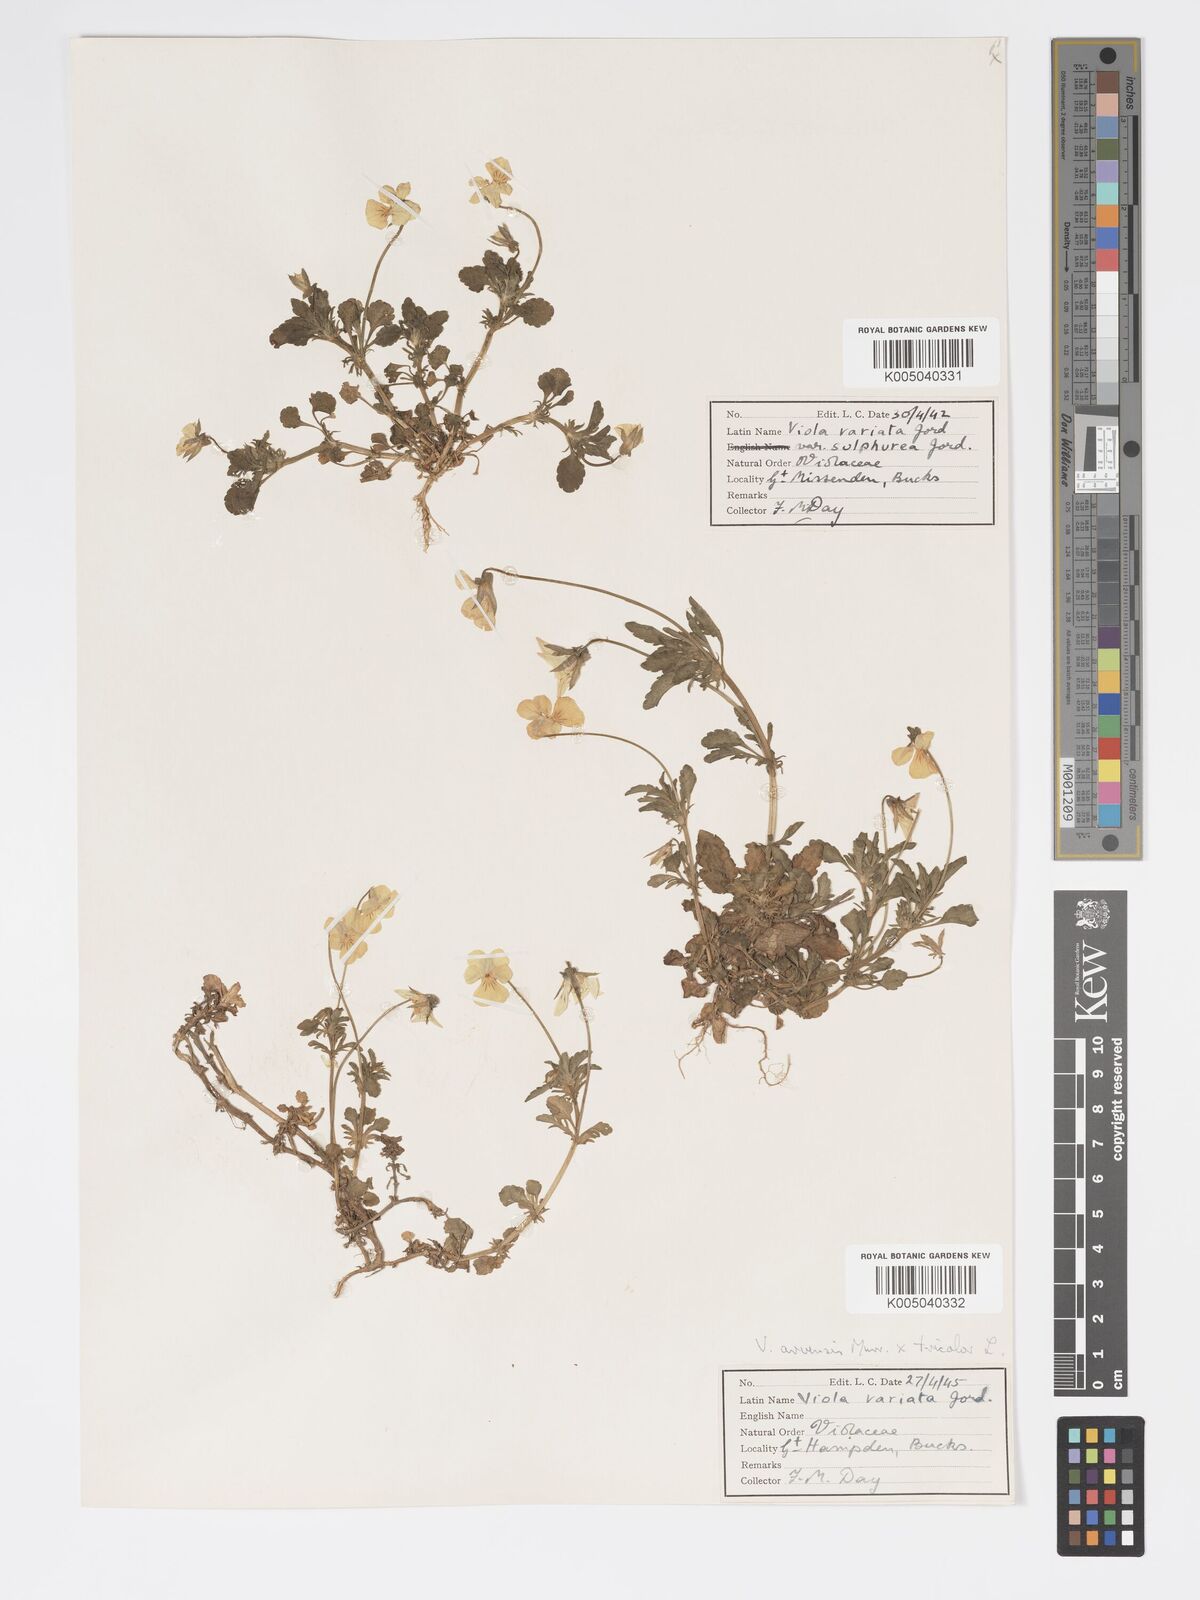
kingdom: Plantae
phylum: Tracheophyta
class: Magnoliopsida
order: Malpighiales
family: Violaceae
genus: Viola
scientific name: Viola arvensis
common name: Field pansy
